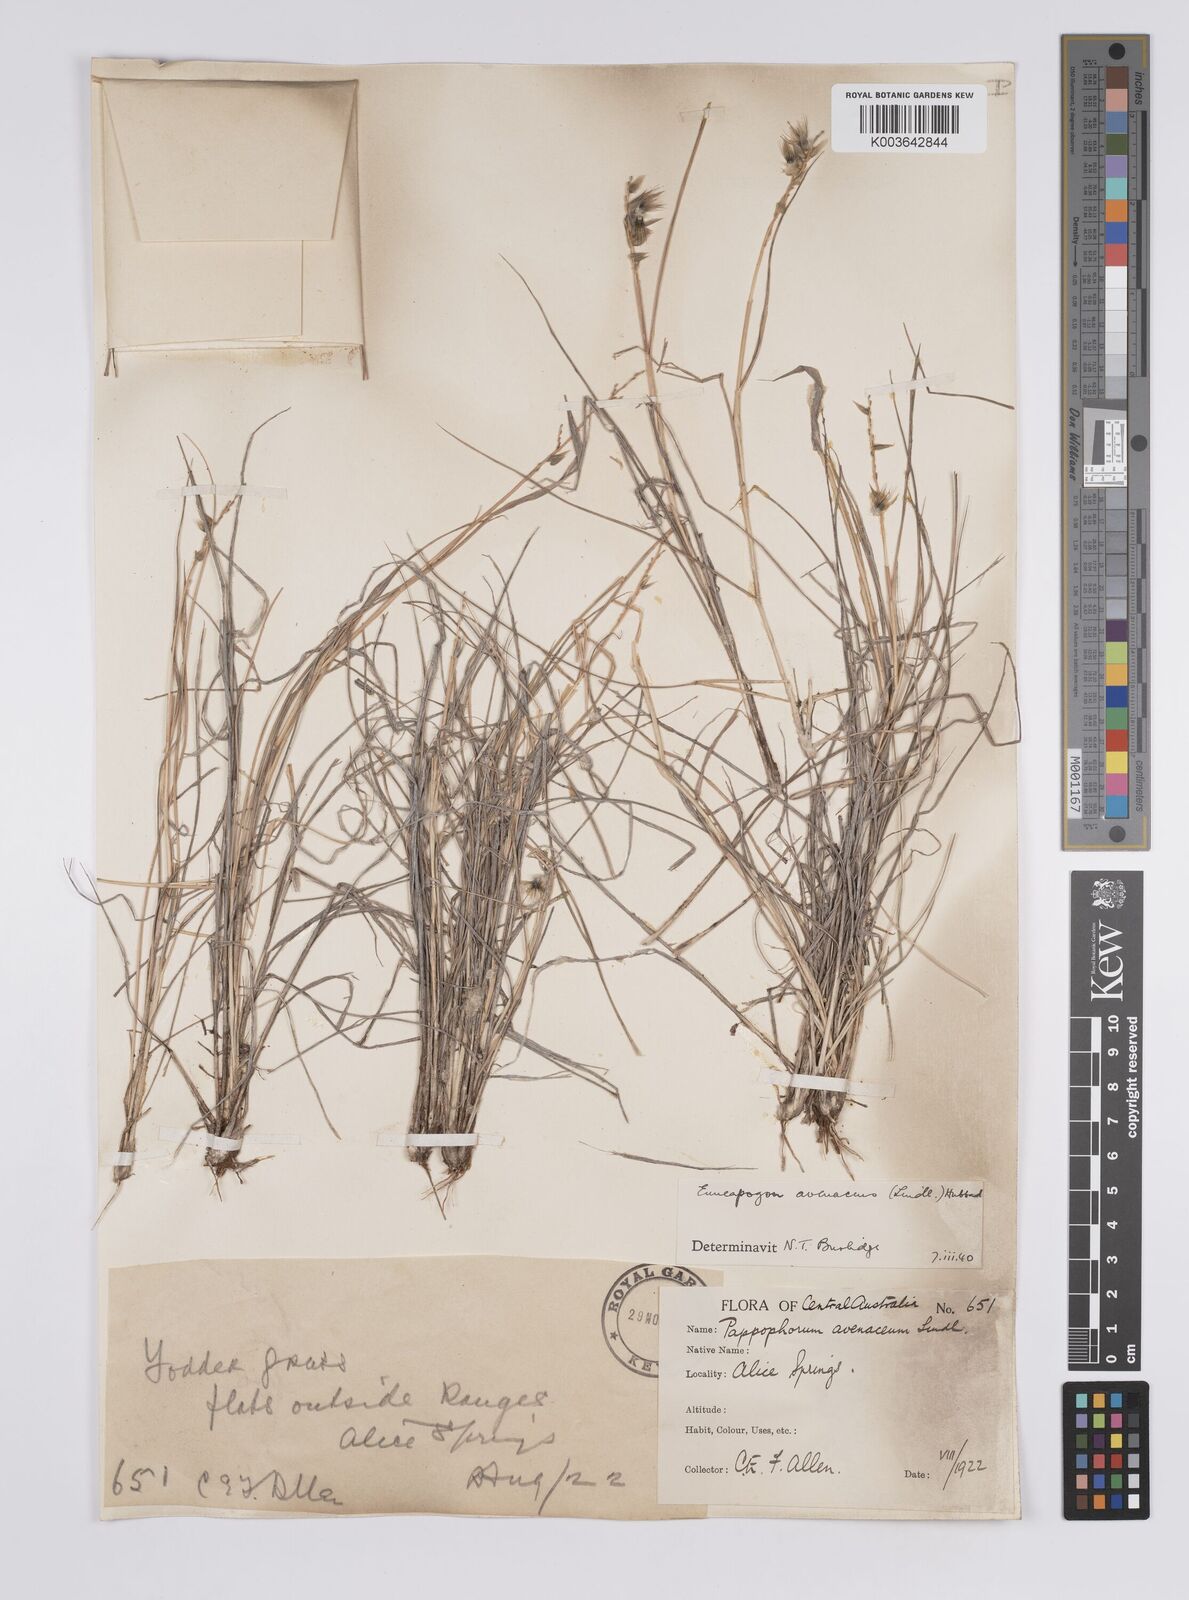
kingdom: Plantae
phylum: Tracheophyta
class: Liliopsida
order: Poales
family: Poaceae
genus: Enneapogon
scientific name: Enneapogon avenaceus
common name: Hairy oat grass
